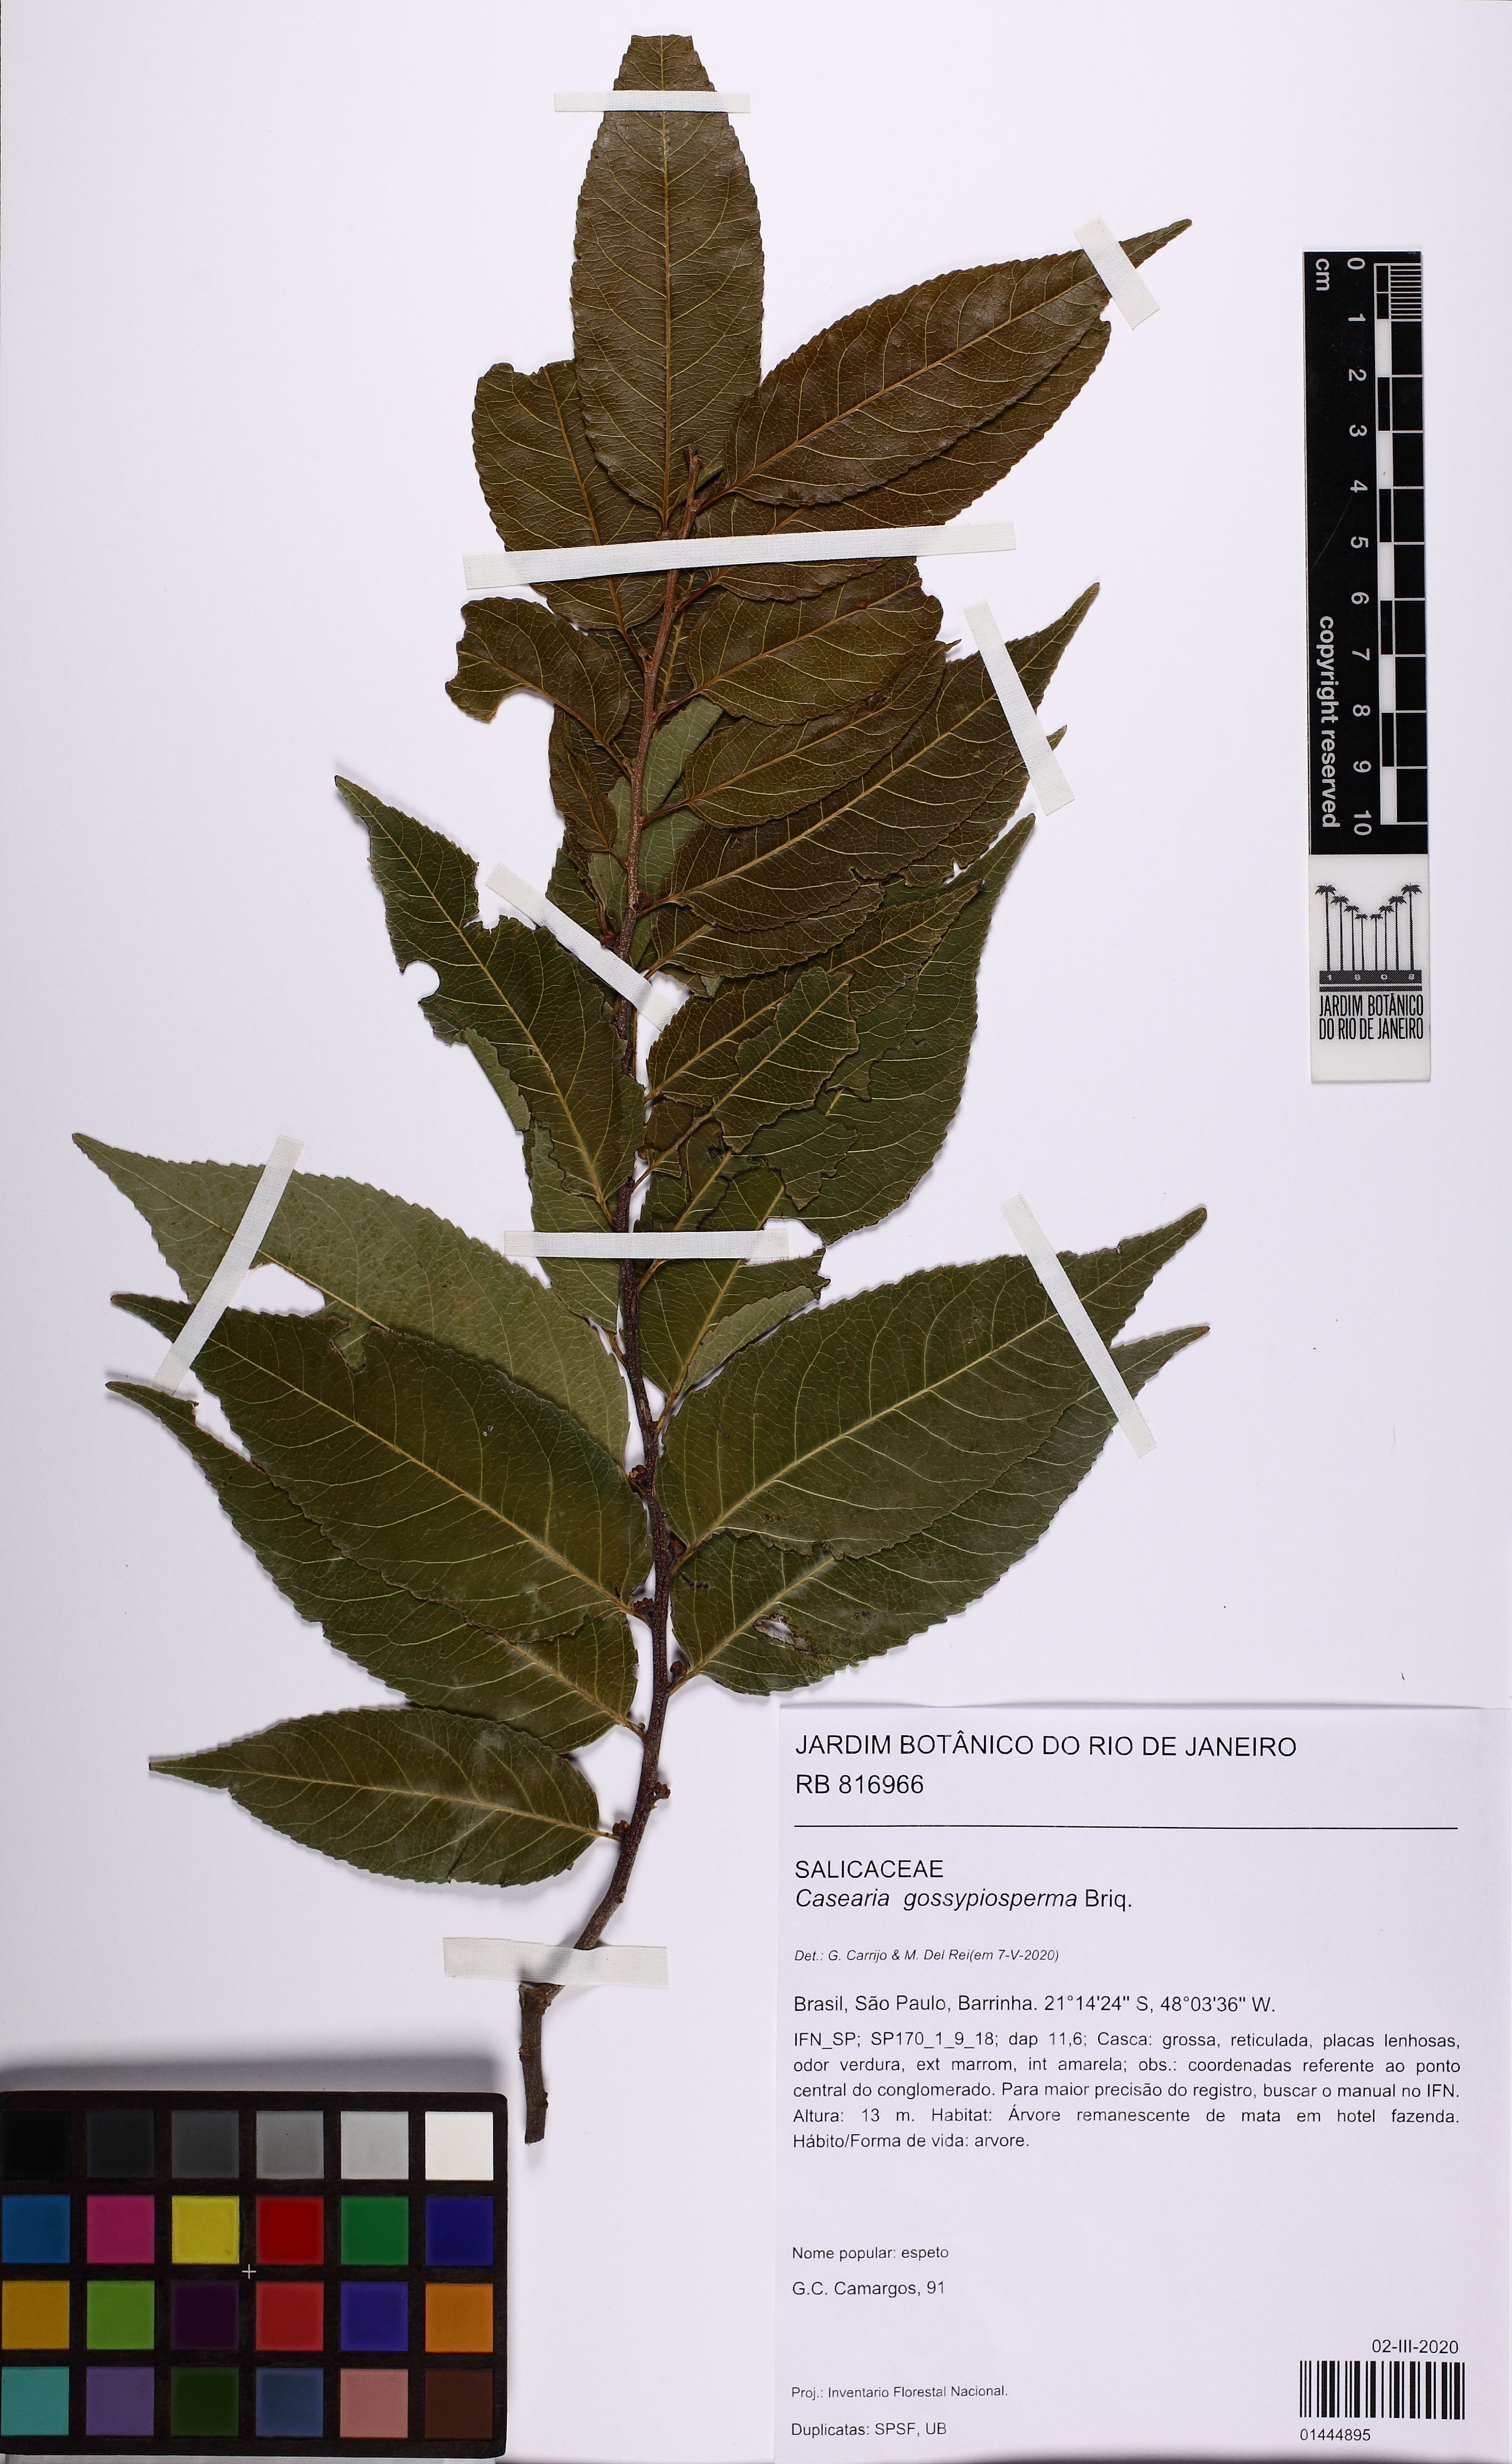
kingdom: Plantae
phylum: Tracheophyta
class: Magnoliopsida
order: Malpighiales
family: Salicaceae
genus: Casearia
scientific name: Casearia gossypiosperma
